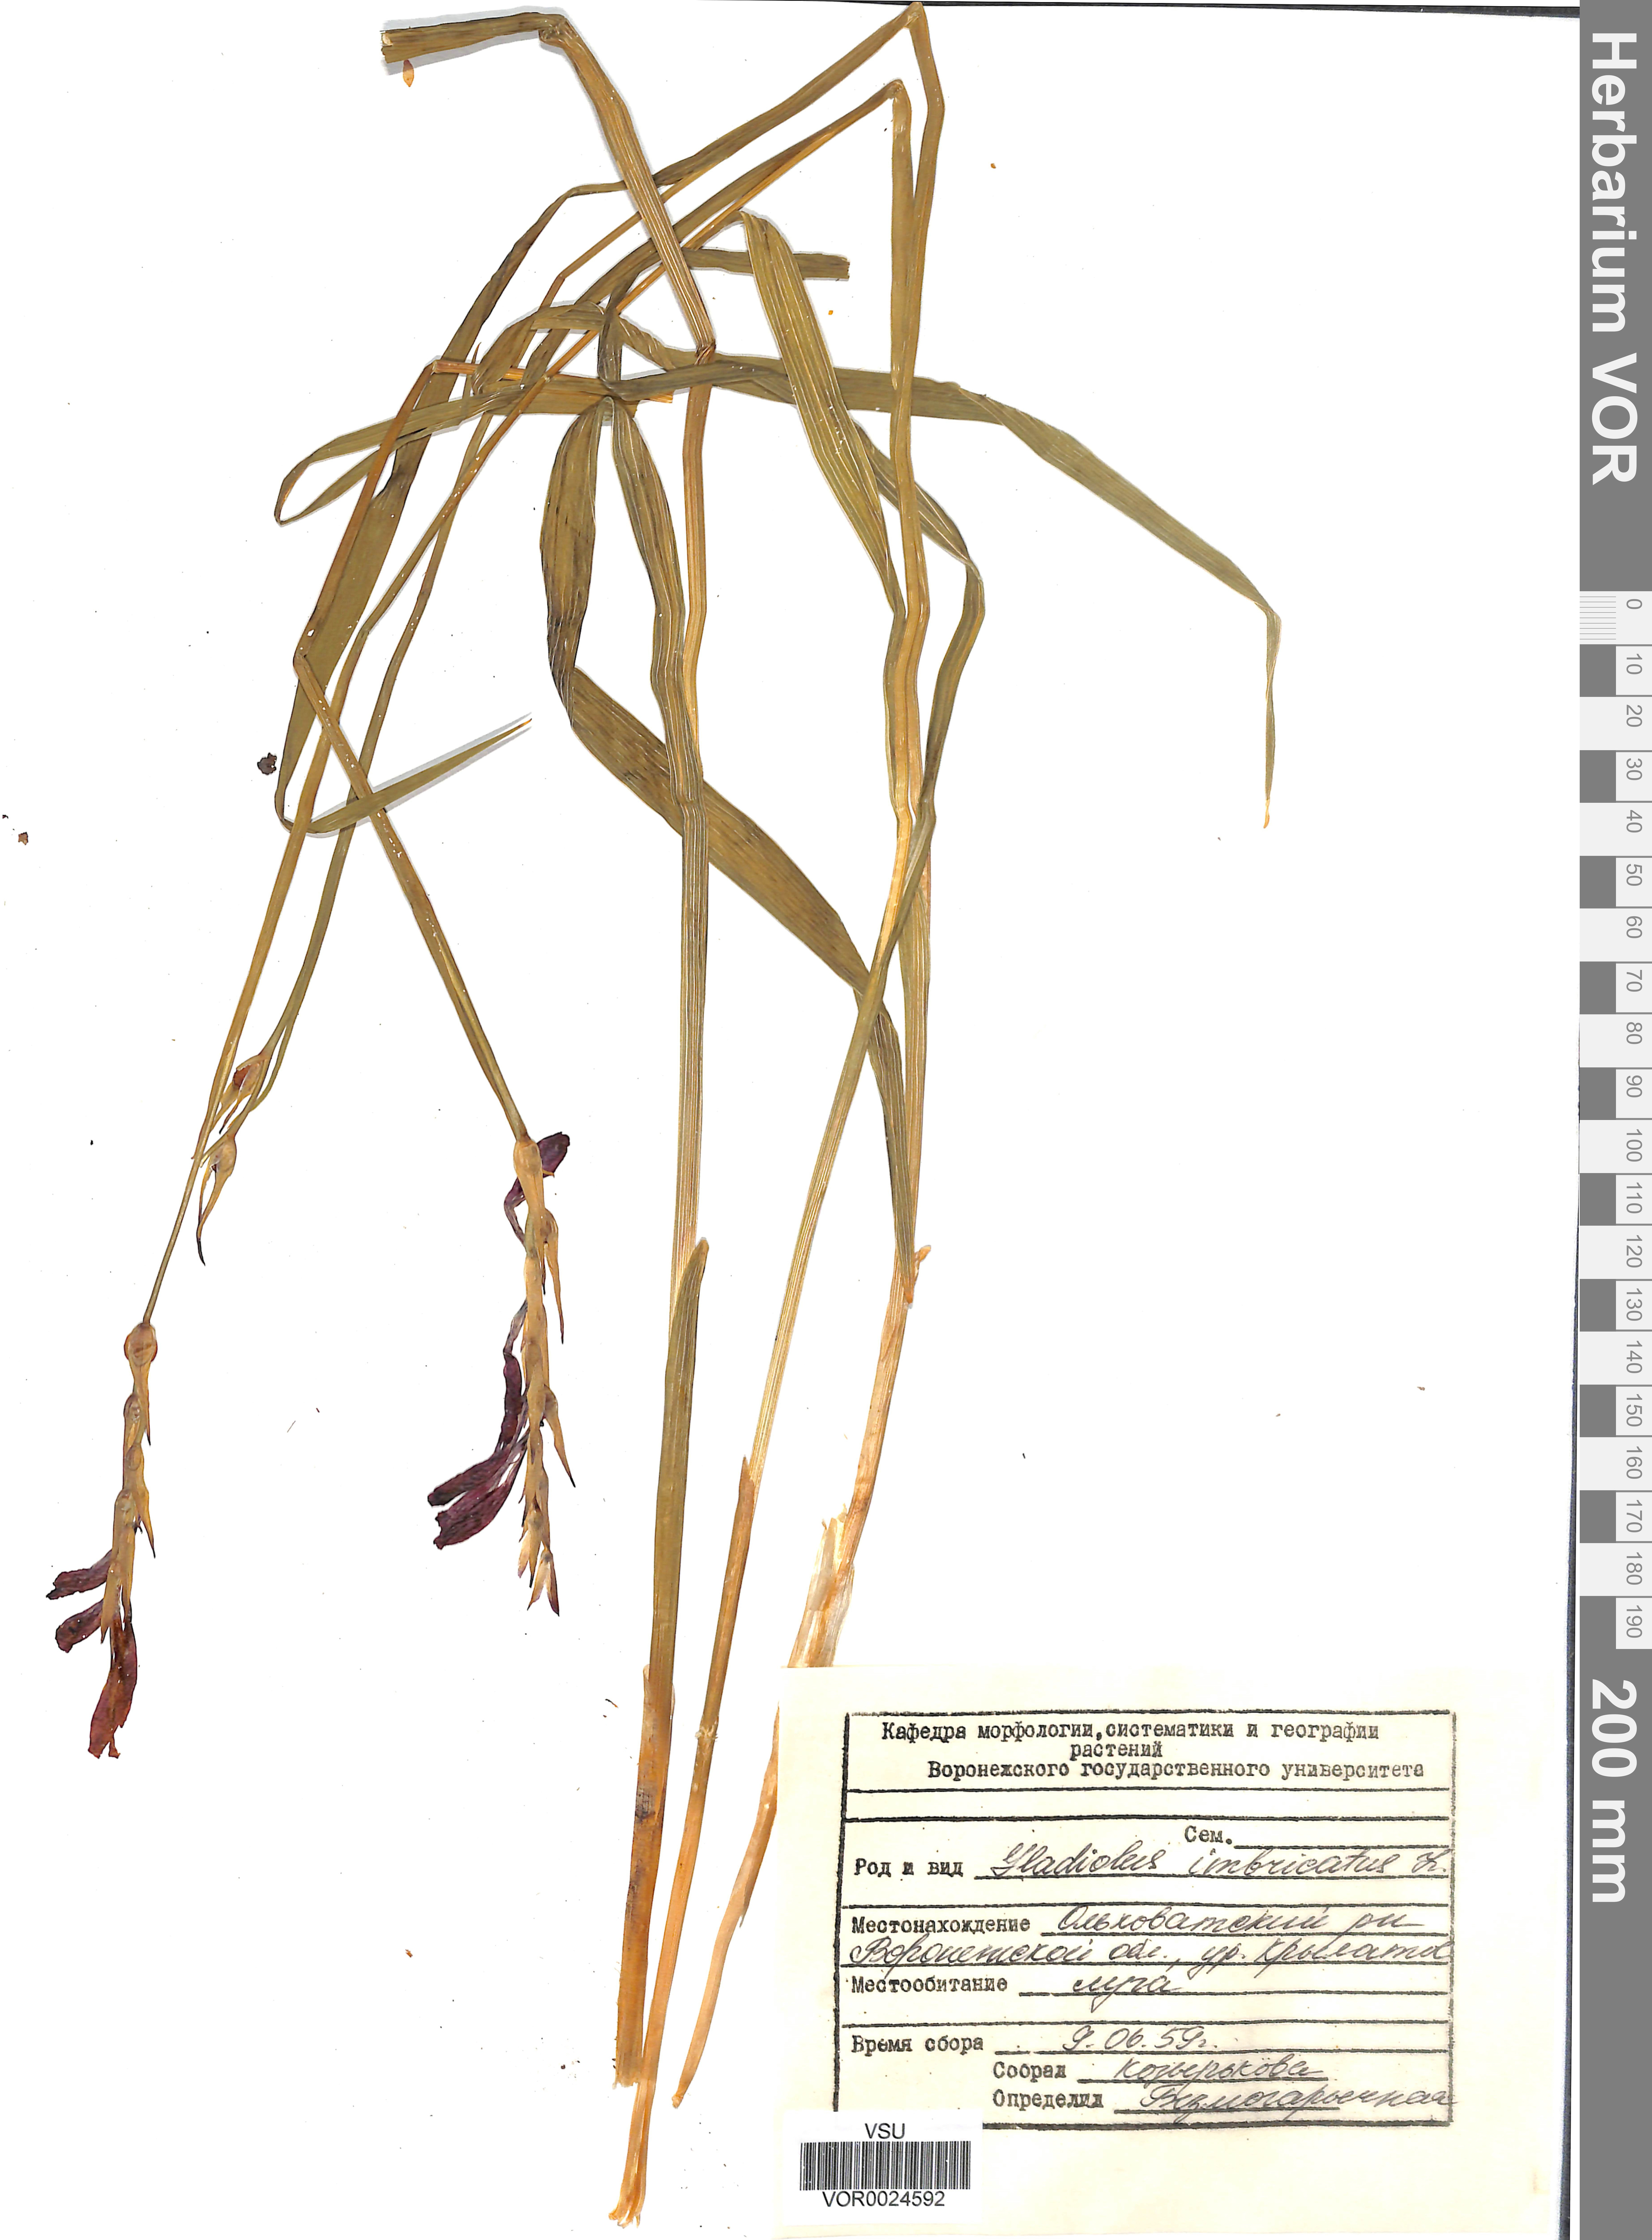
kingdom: Plantae
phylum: Tracheophyta
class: Liliopsida
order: Asparagales
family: Iridaceae
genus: Gladiolus
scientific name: Gladiolus tenuis
